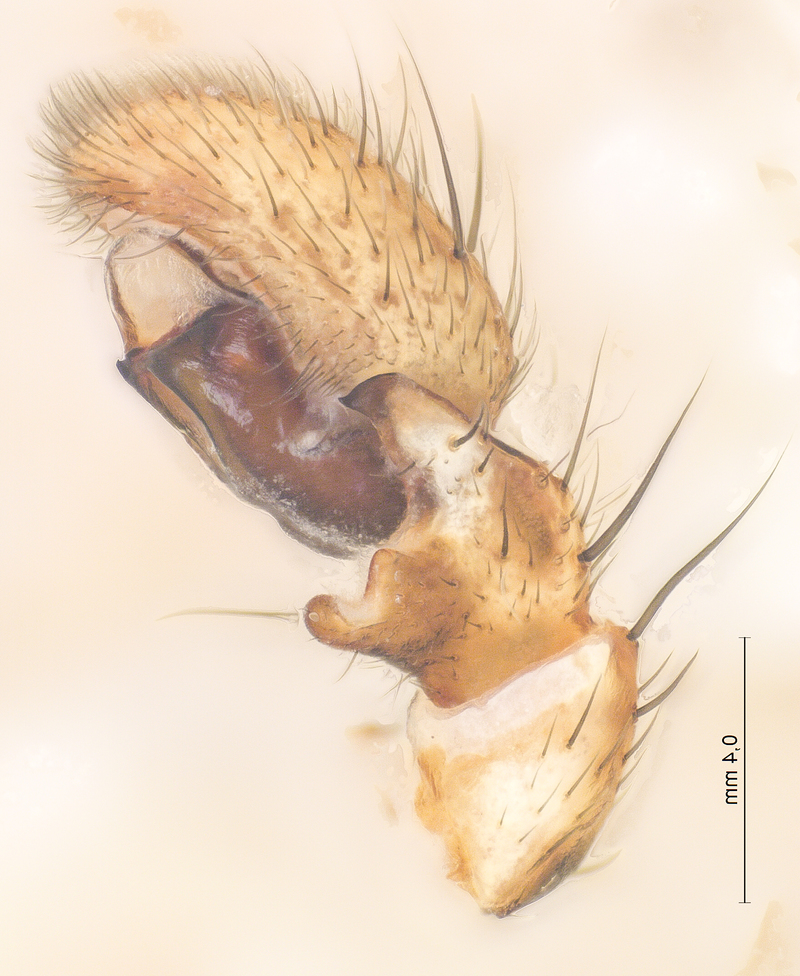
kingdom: Animalia
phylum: Arthropoda
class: Arachnida
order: Araneae
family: Thomisidae
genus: Xysticus
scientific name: Xysticus acerbus
